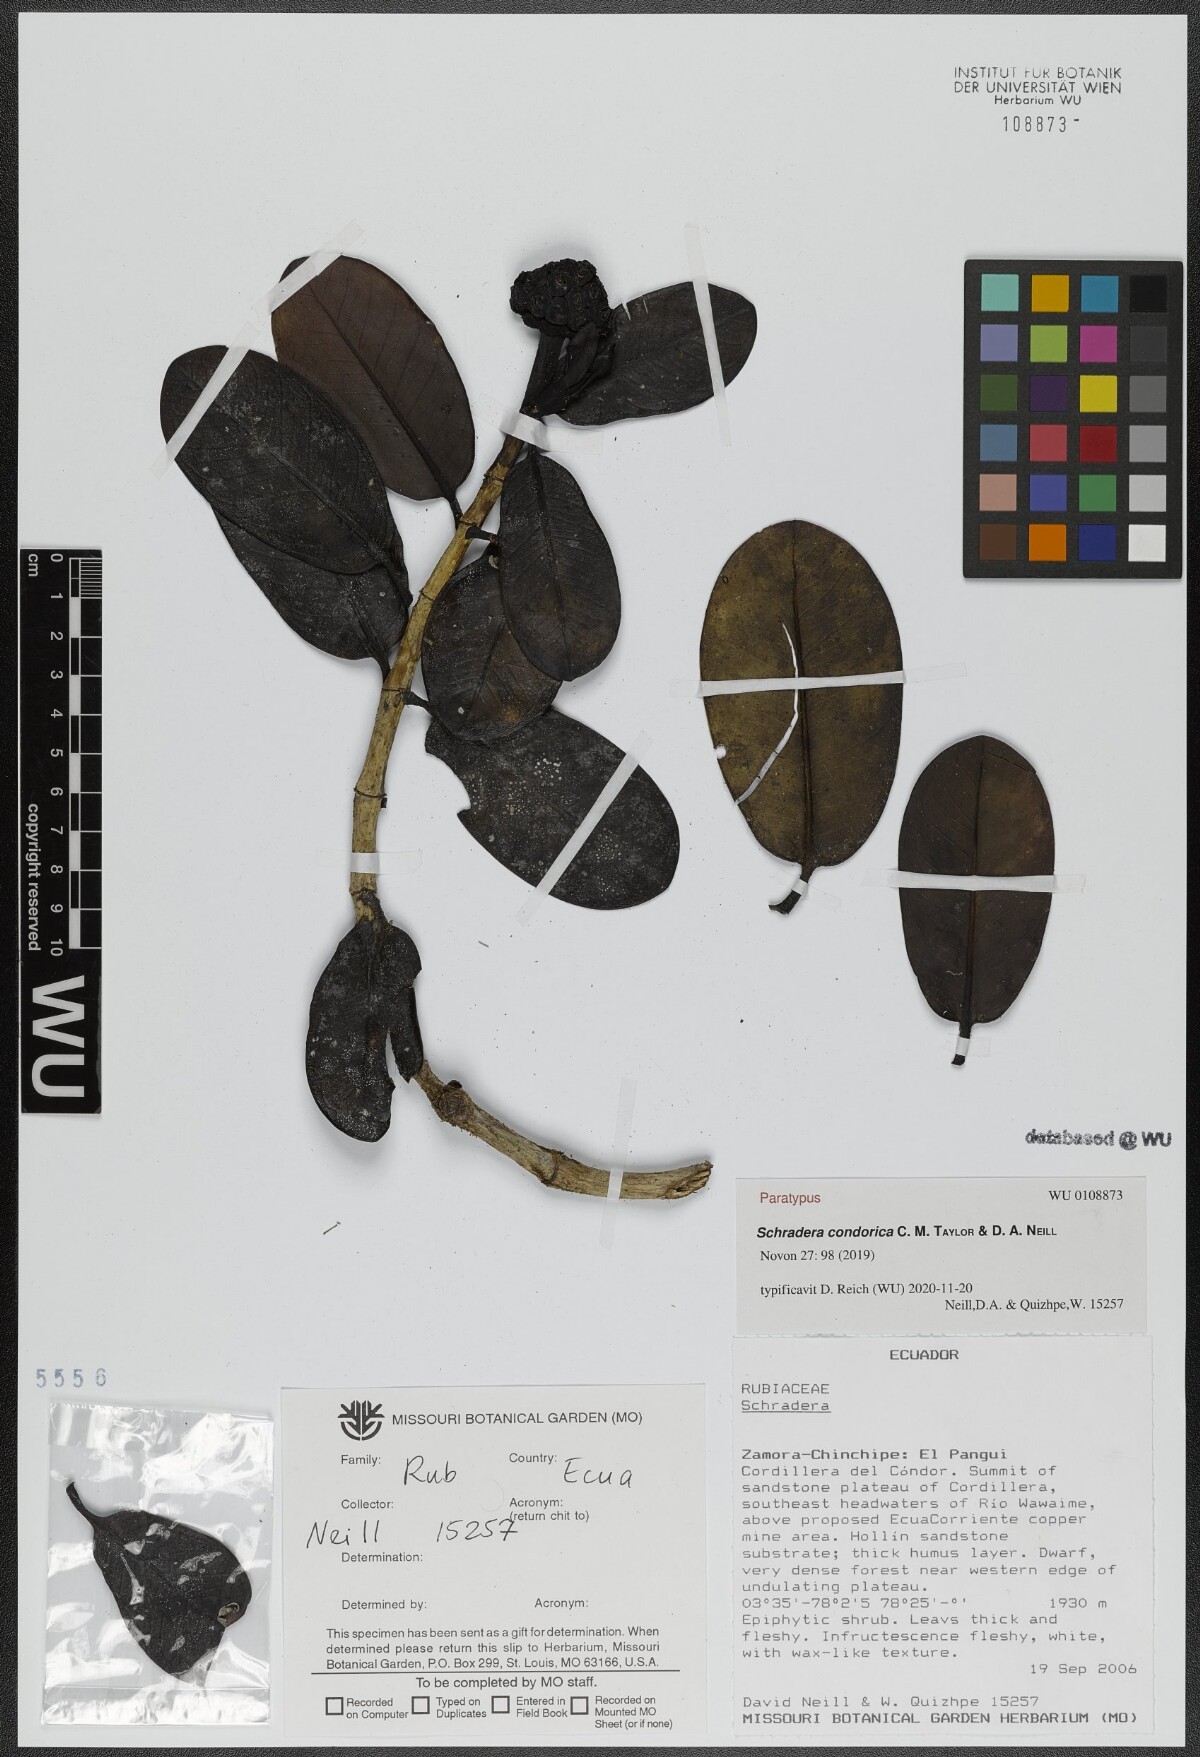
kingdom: Plantae
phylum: Tracheophyta
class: Magnoliopsida
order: Gentianales
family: Rubiaceae
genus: Schradera
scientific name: Schradera condorica
